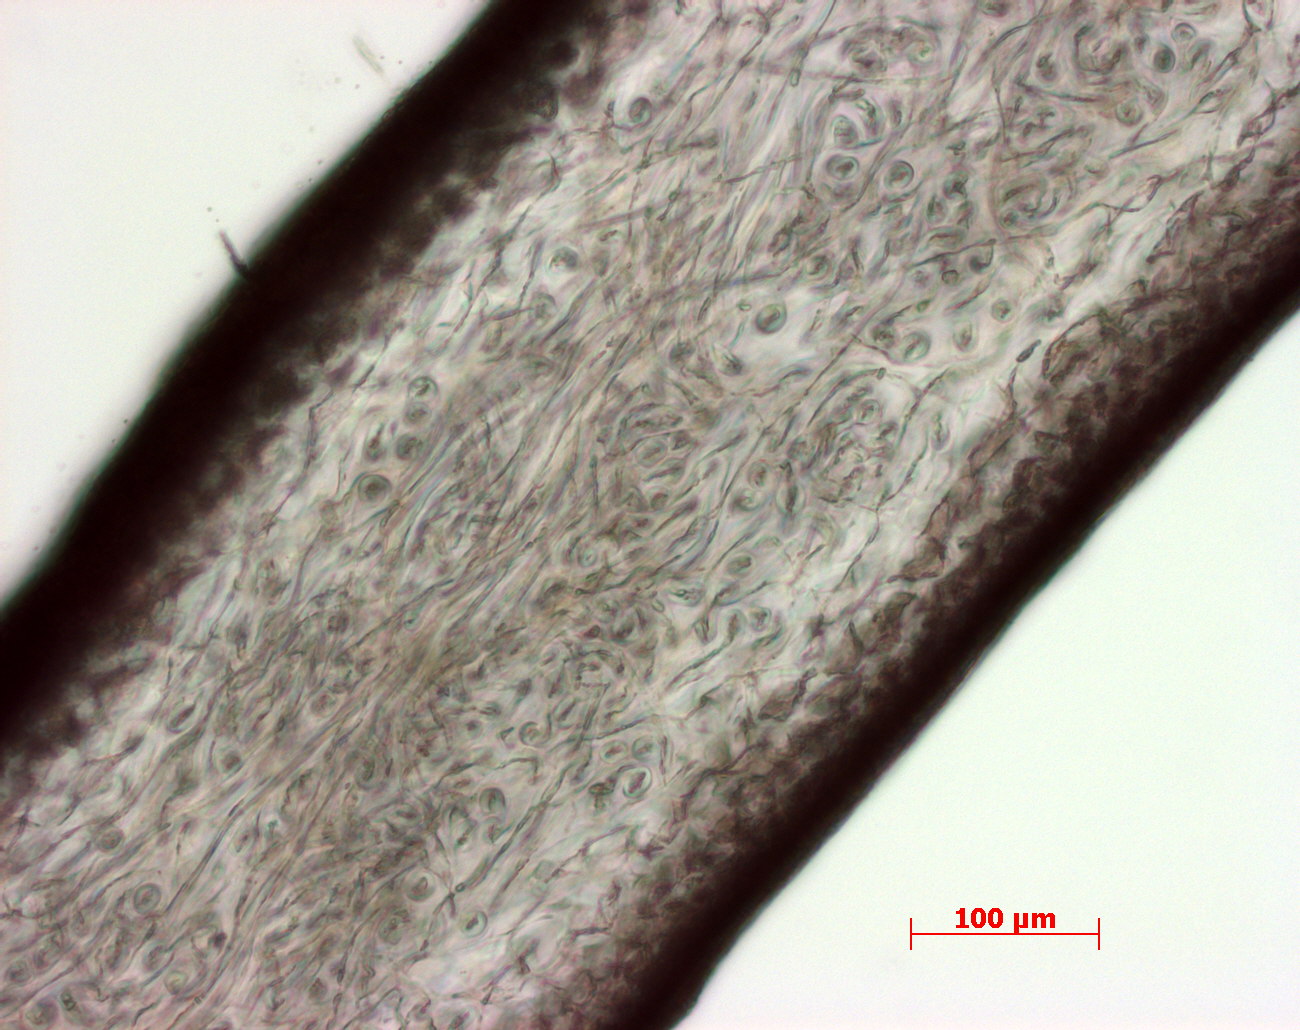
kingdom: Plantae
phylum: Tracheophyta
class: Magnoliopsida
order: Myrtales
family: Onagraceae
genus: Epilobium
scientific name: Epilobium ciliatum
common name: American willowherb
